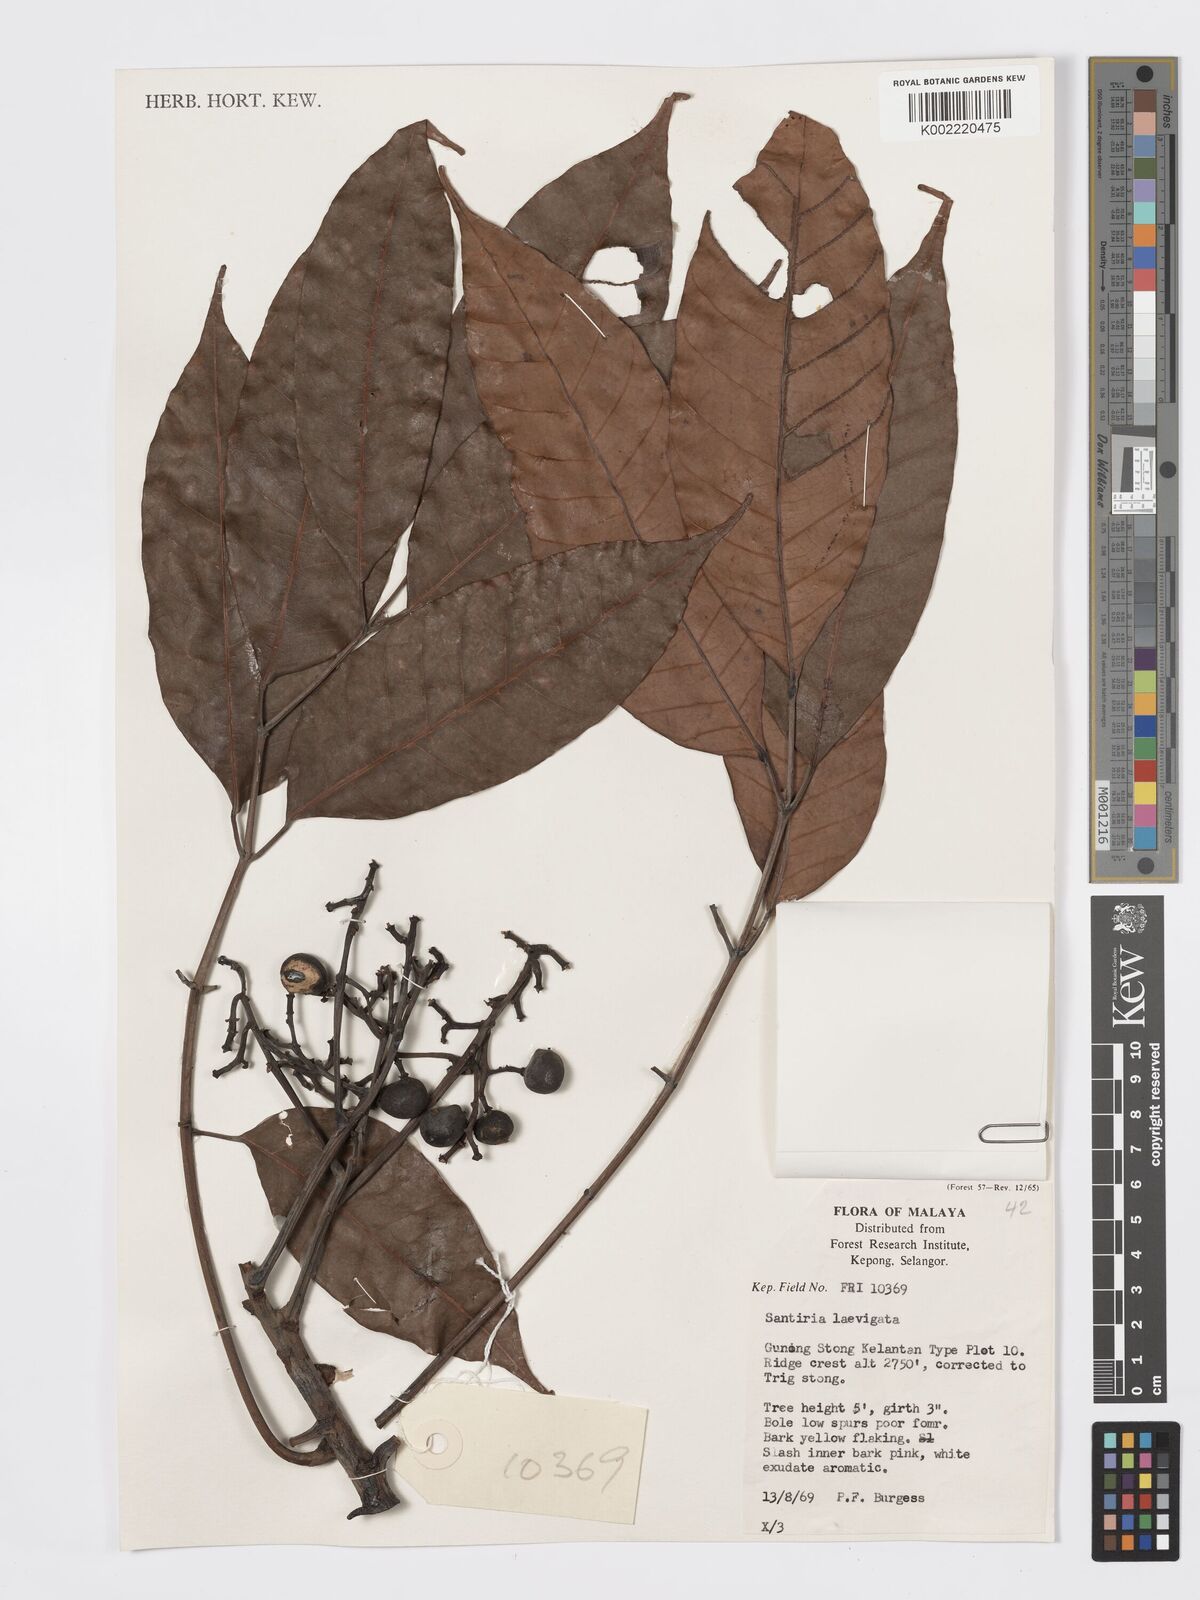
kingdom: Plantae
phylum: Tracheophyta
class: Magnoliopsida
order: Sapindales
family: Burseraceae
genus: Santiria
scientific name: Santiria laevigata
